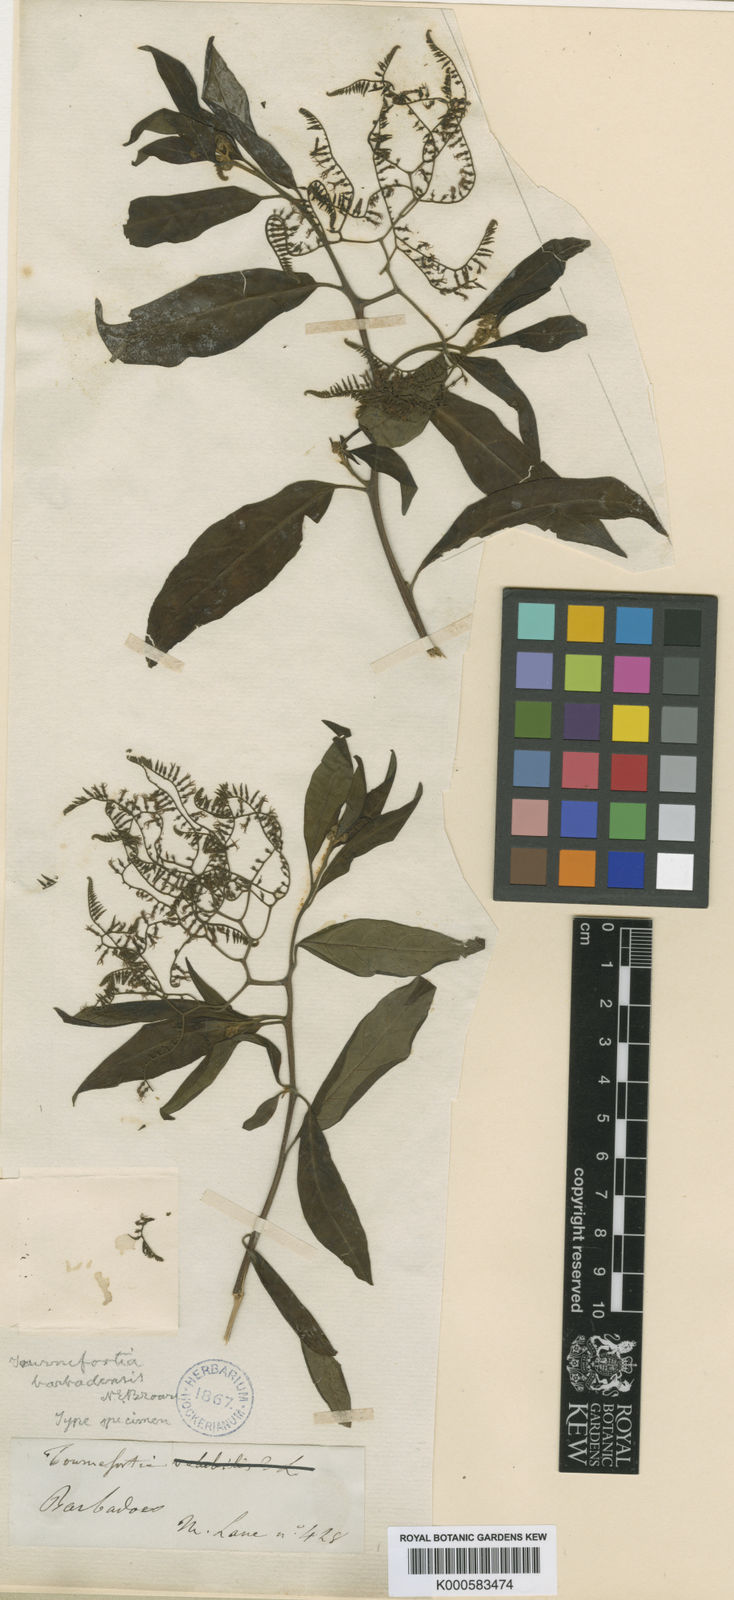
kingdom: Plantae
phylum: Tracheophyta
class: Magnoliopsida
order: Boraginales
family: Heliotropiaceae
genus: Myriopus
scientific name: Myriopus volubilis
